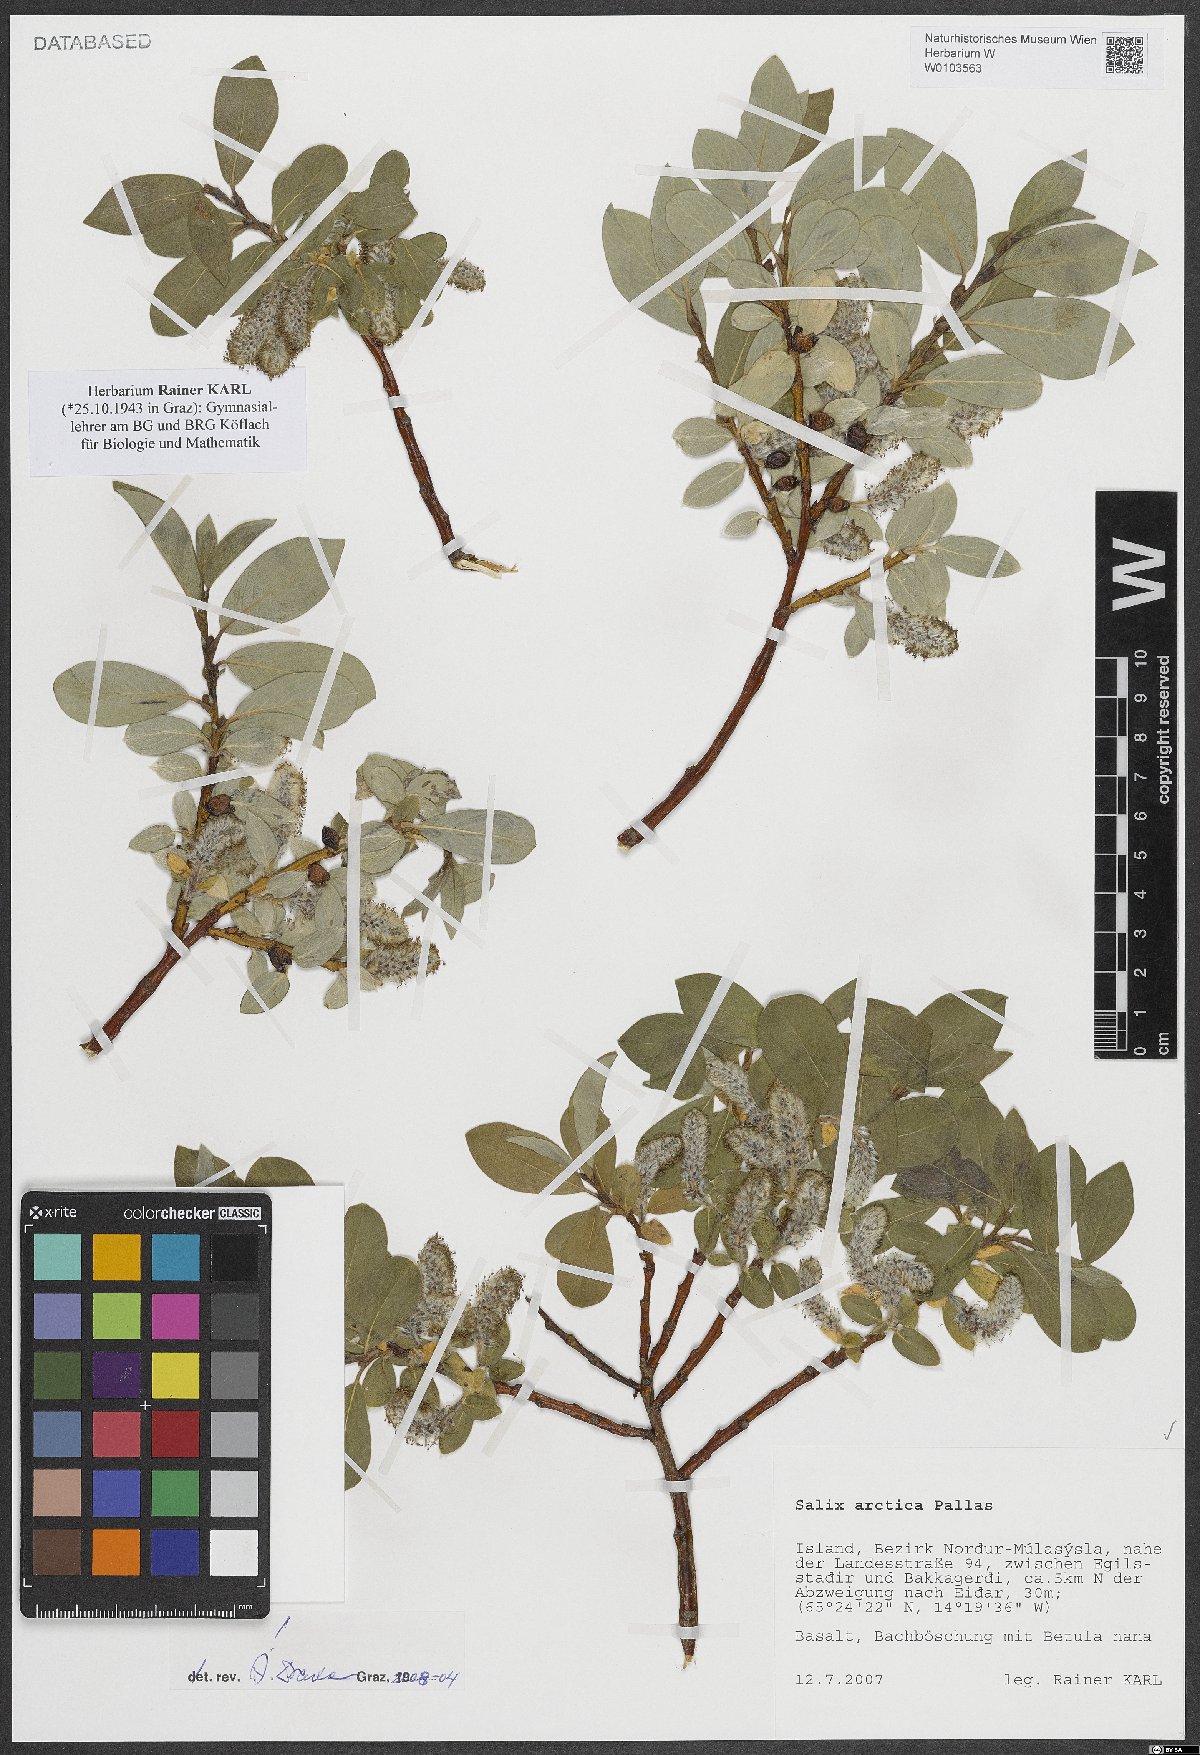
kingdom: Plantae
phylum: Tracheophyta
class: Magnoliopsida
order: Malpighiales
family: Salicaceae
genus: Salix
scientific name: Salix arctica
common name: Arctic willow
